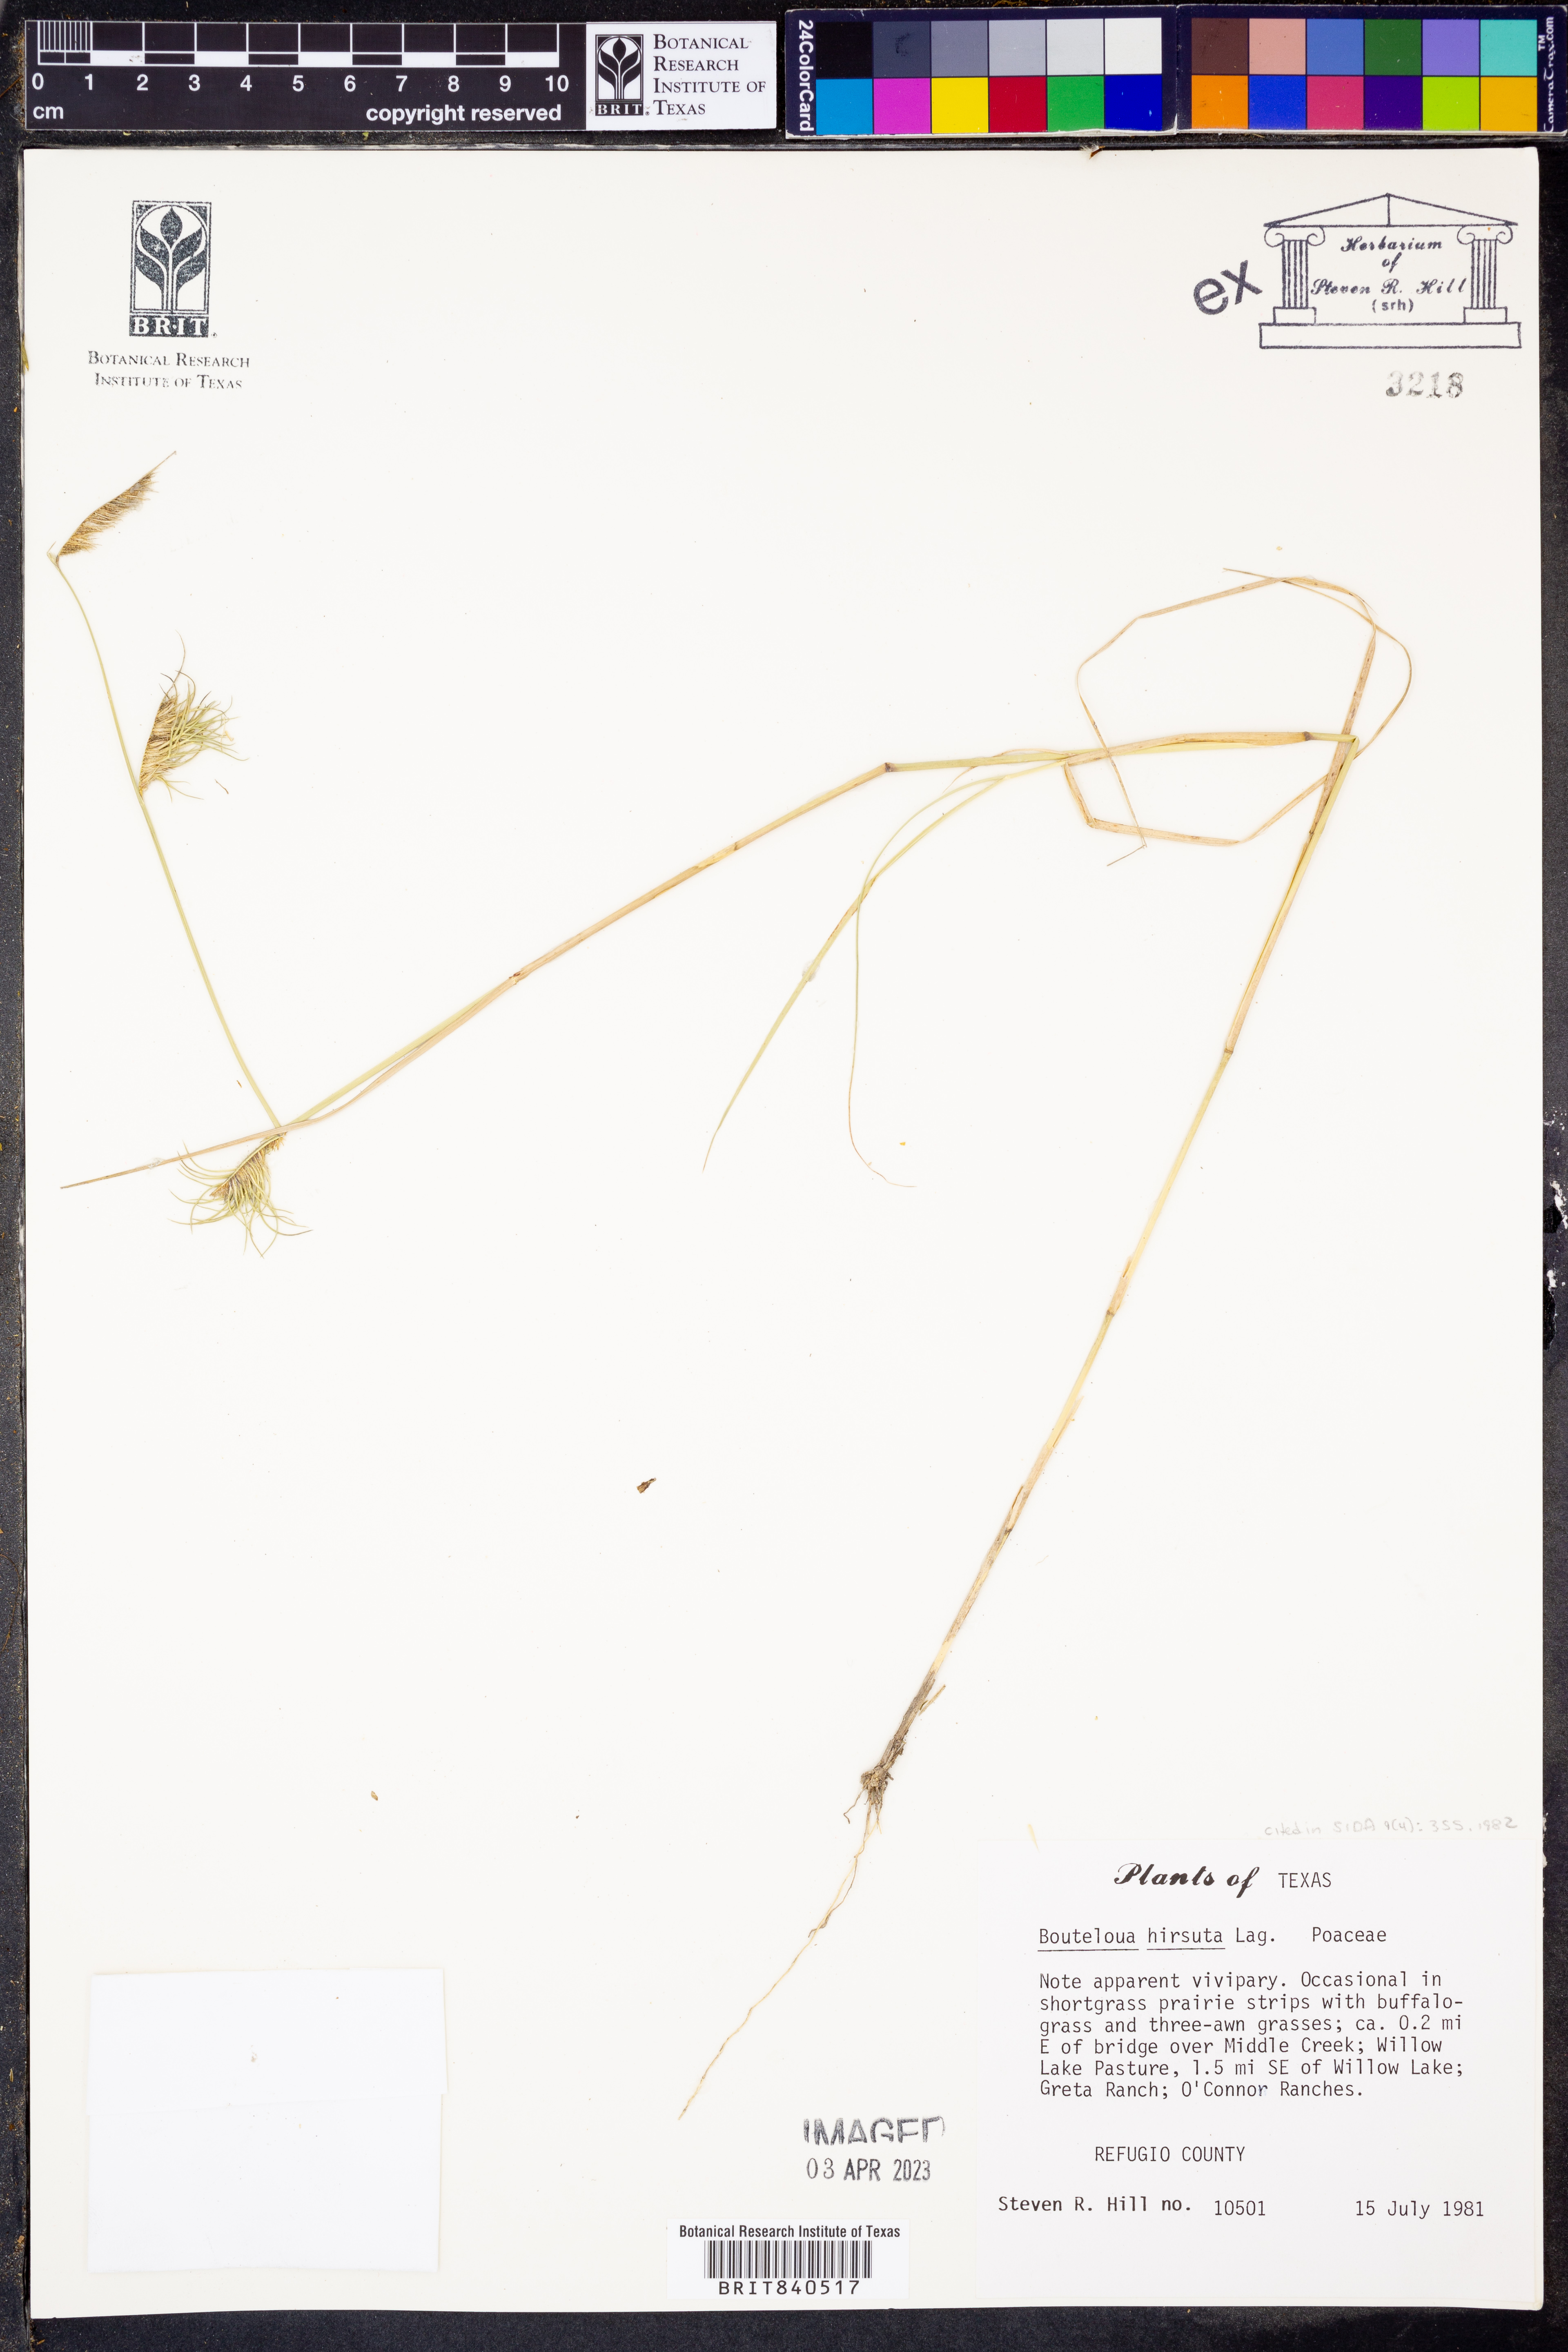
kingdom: Plantae
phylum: Tracheophyta
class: Liliopsida
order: Poales
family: Poaceae
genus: Bouteloua
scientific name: Bouteloua hirsuta
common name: Hairy grama
